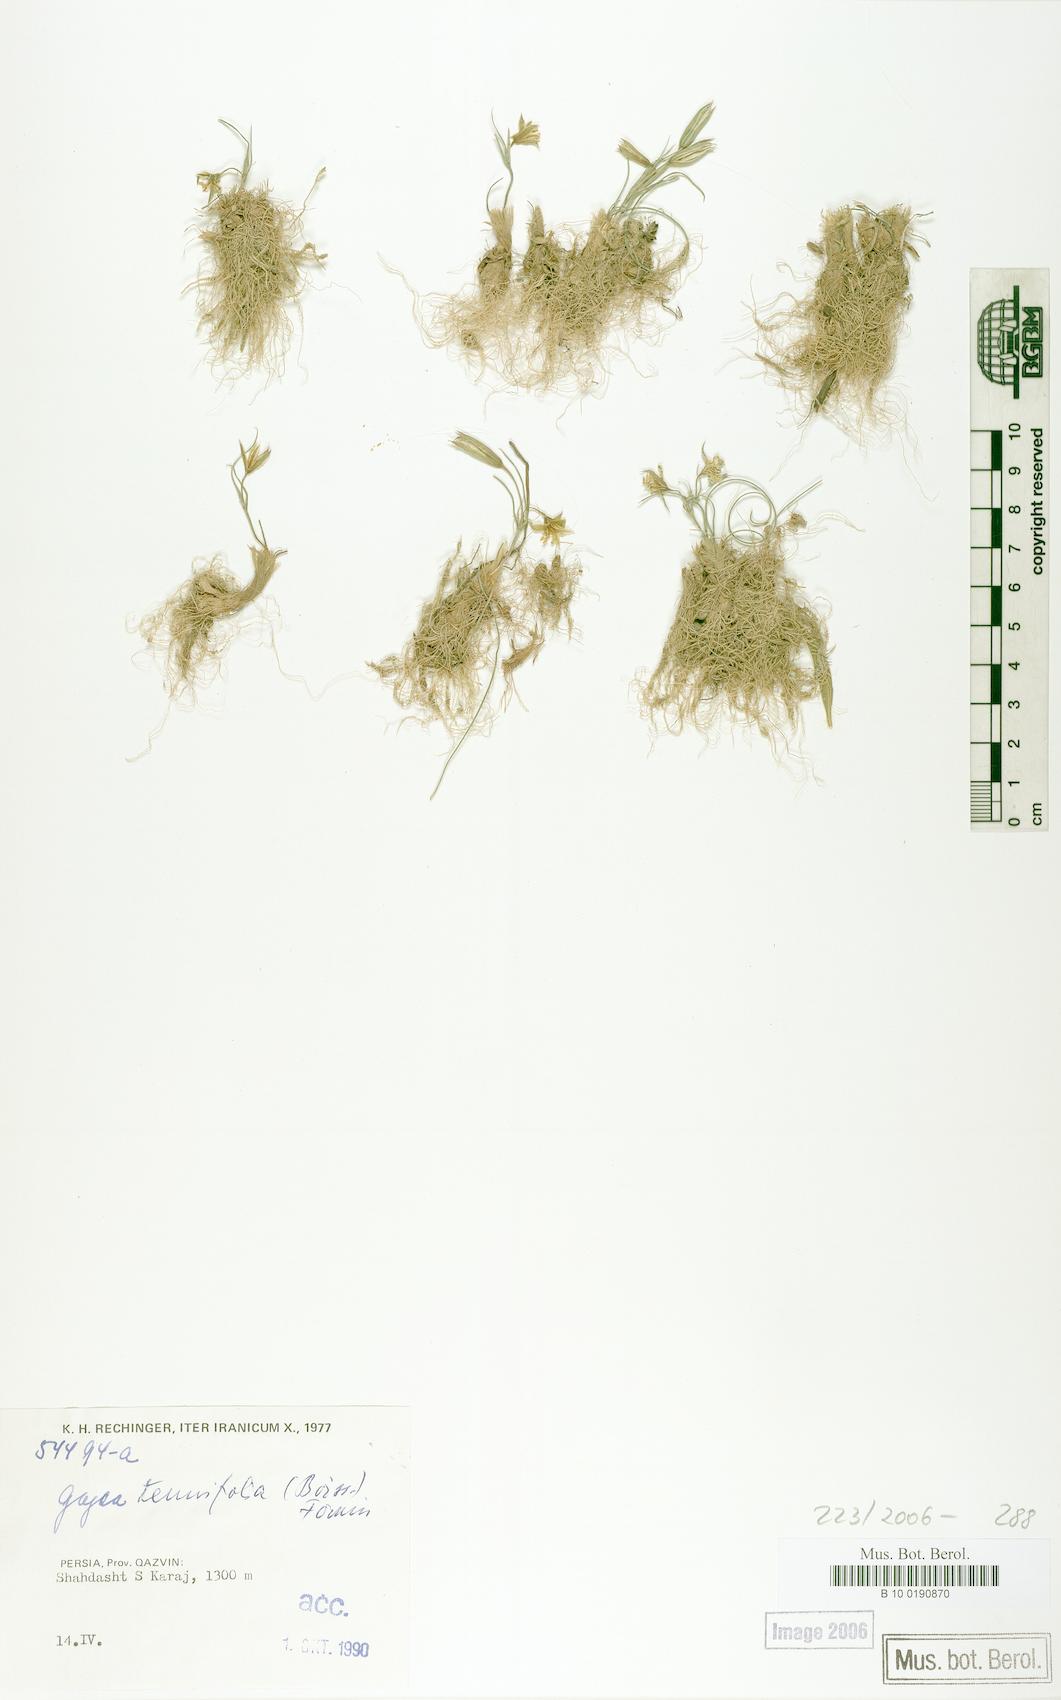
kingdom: Plantae
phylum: Tracheophyta
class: Liliopsida
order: Liliales
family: Liliaceae
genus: Gagea
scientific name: Gagea reticulata
